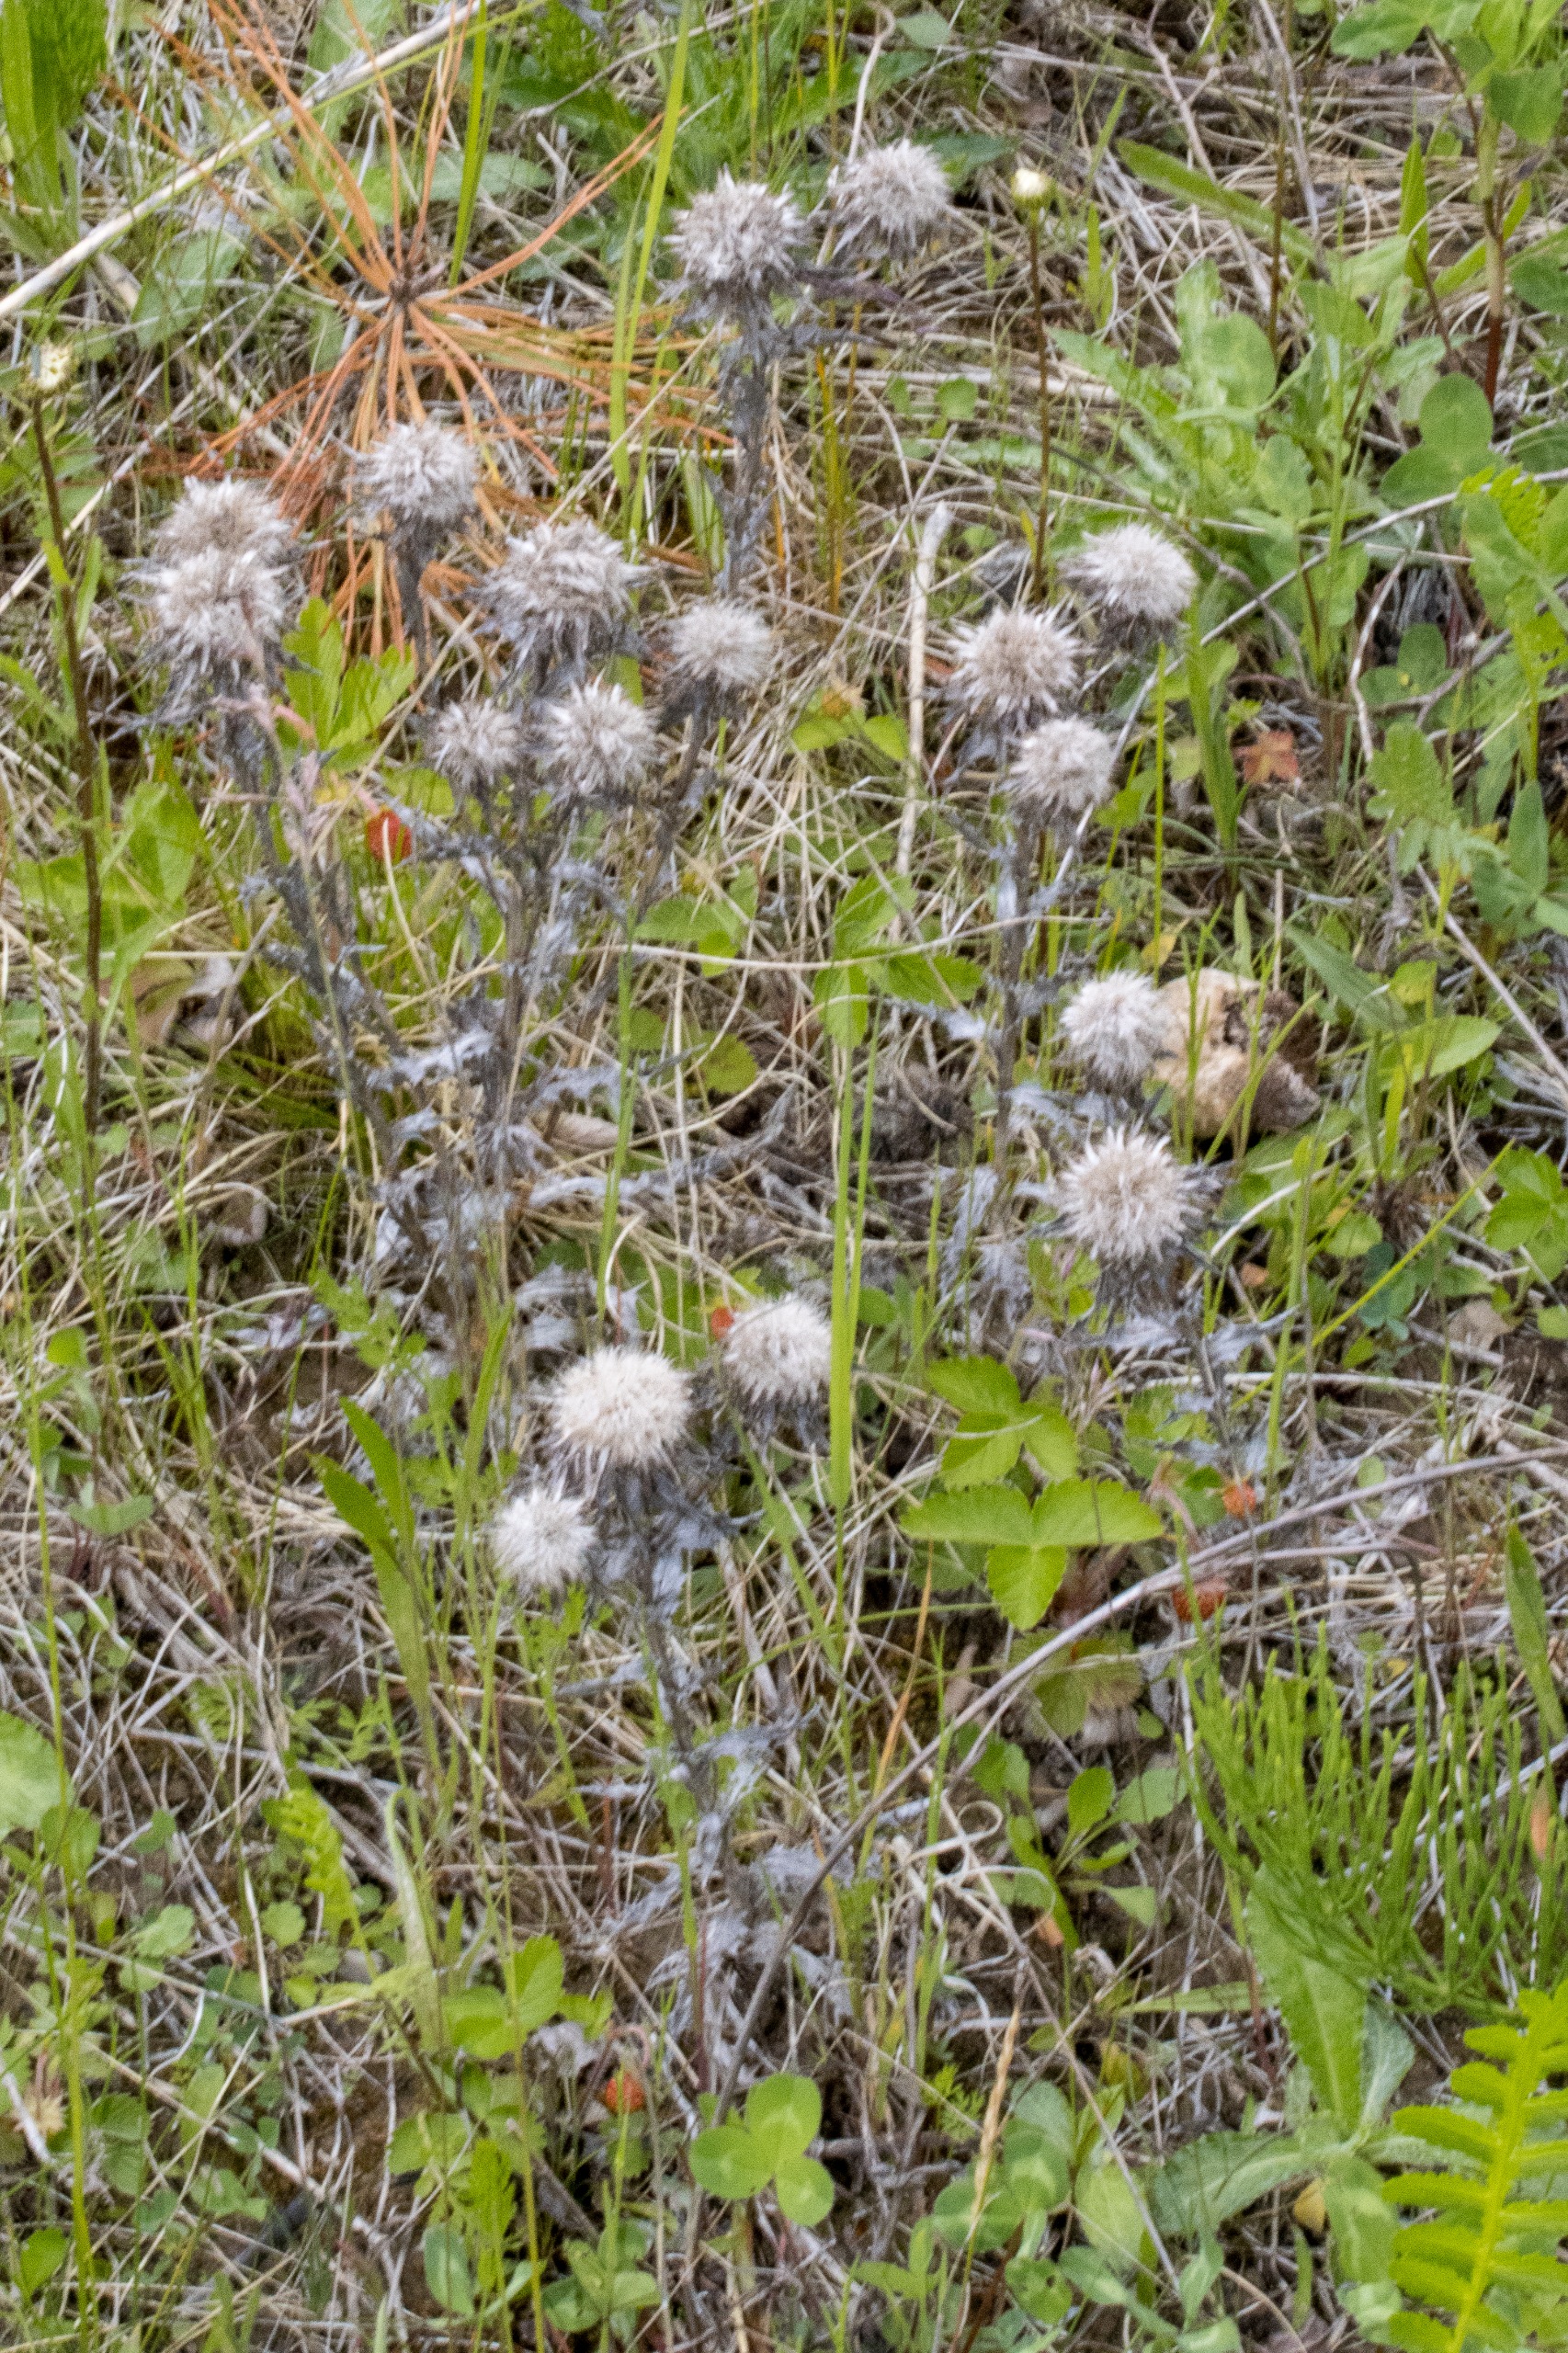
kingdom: Plantae
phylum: Tracheophyta
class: Magnoliopsida
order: Asterales
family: Asteraceae
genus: Carlina
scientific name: Carlina vulgaris
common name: Bakketidsel
